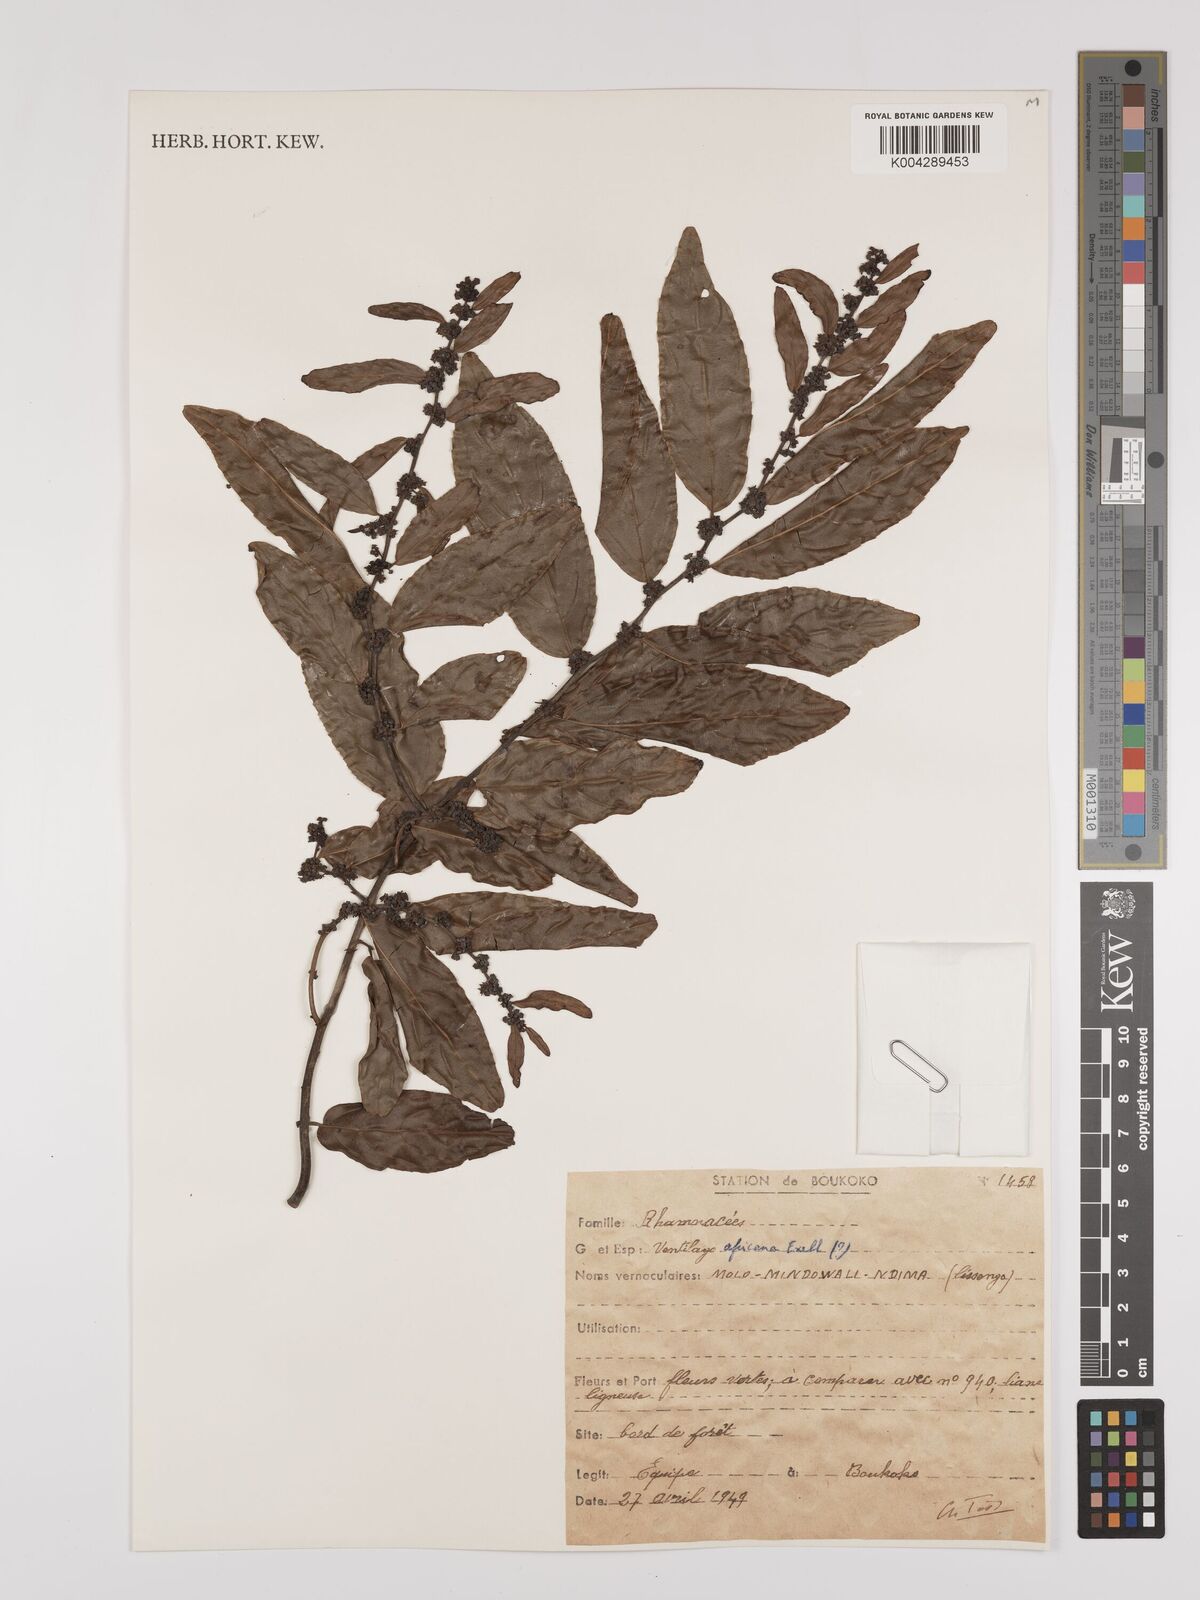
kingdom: Plantae
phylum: Tracheophyta
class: Magnoliopsida
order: Rosales
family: Rhamnaceae
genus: Ventilago
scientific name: Ventilago africana
